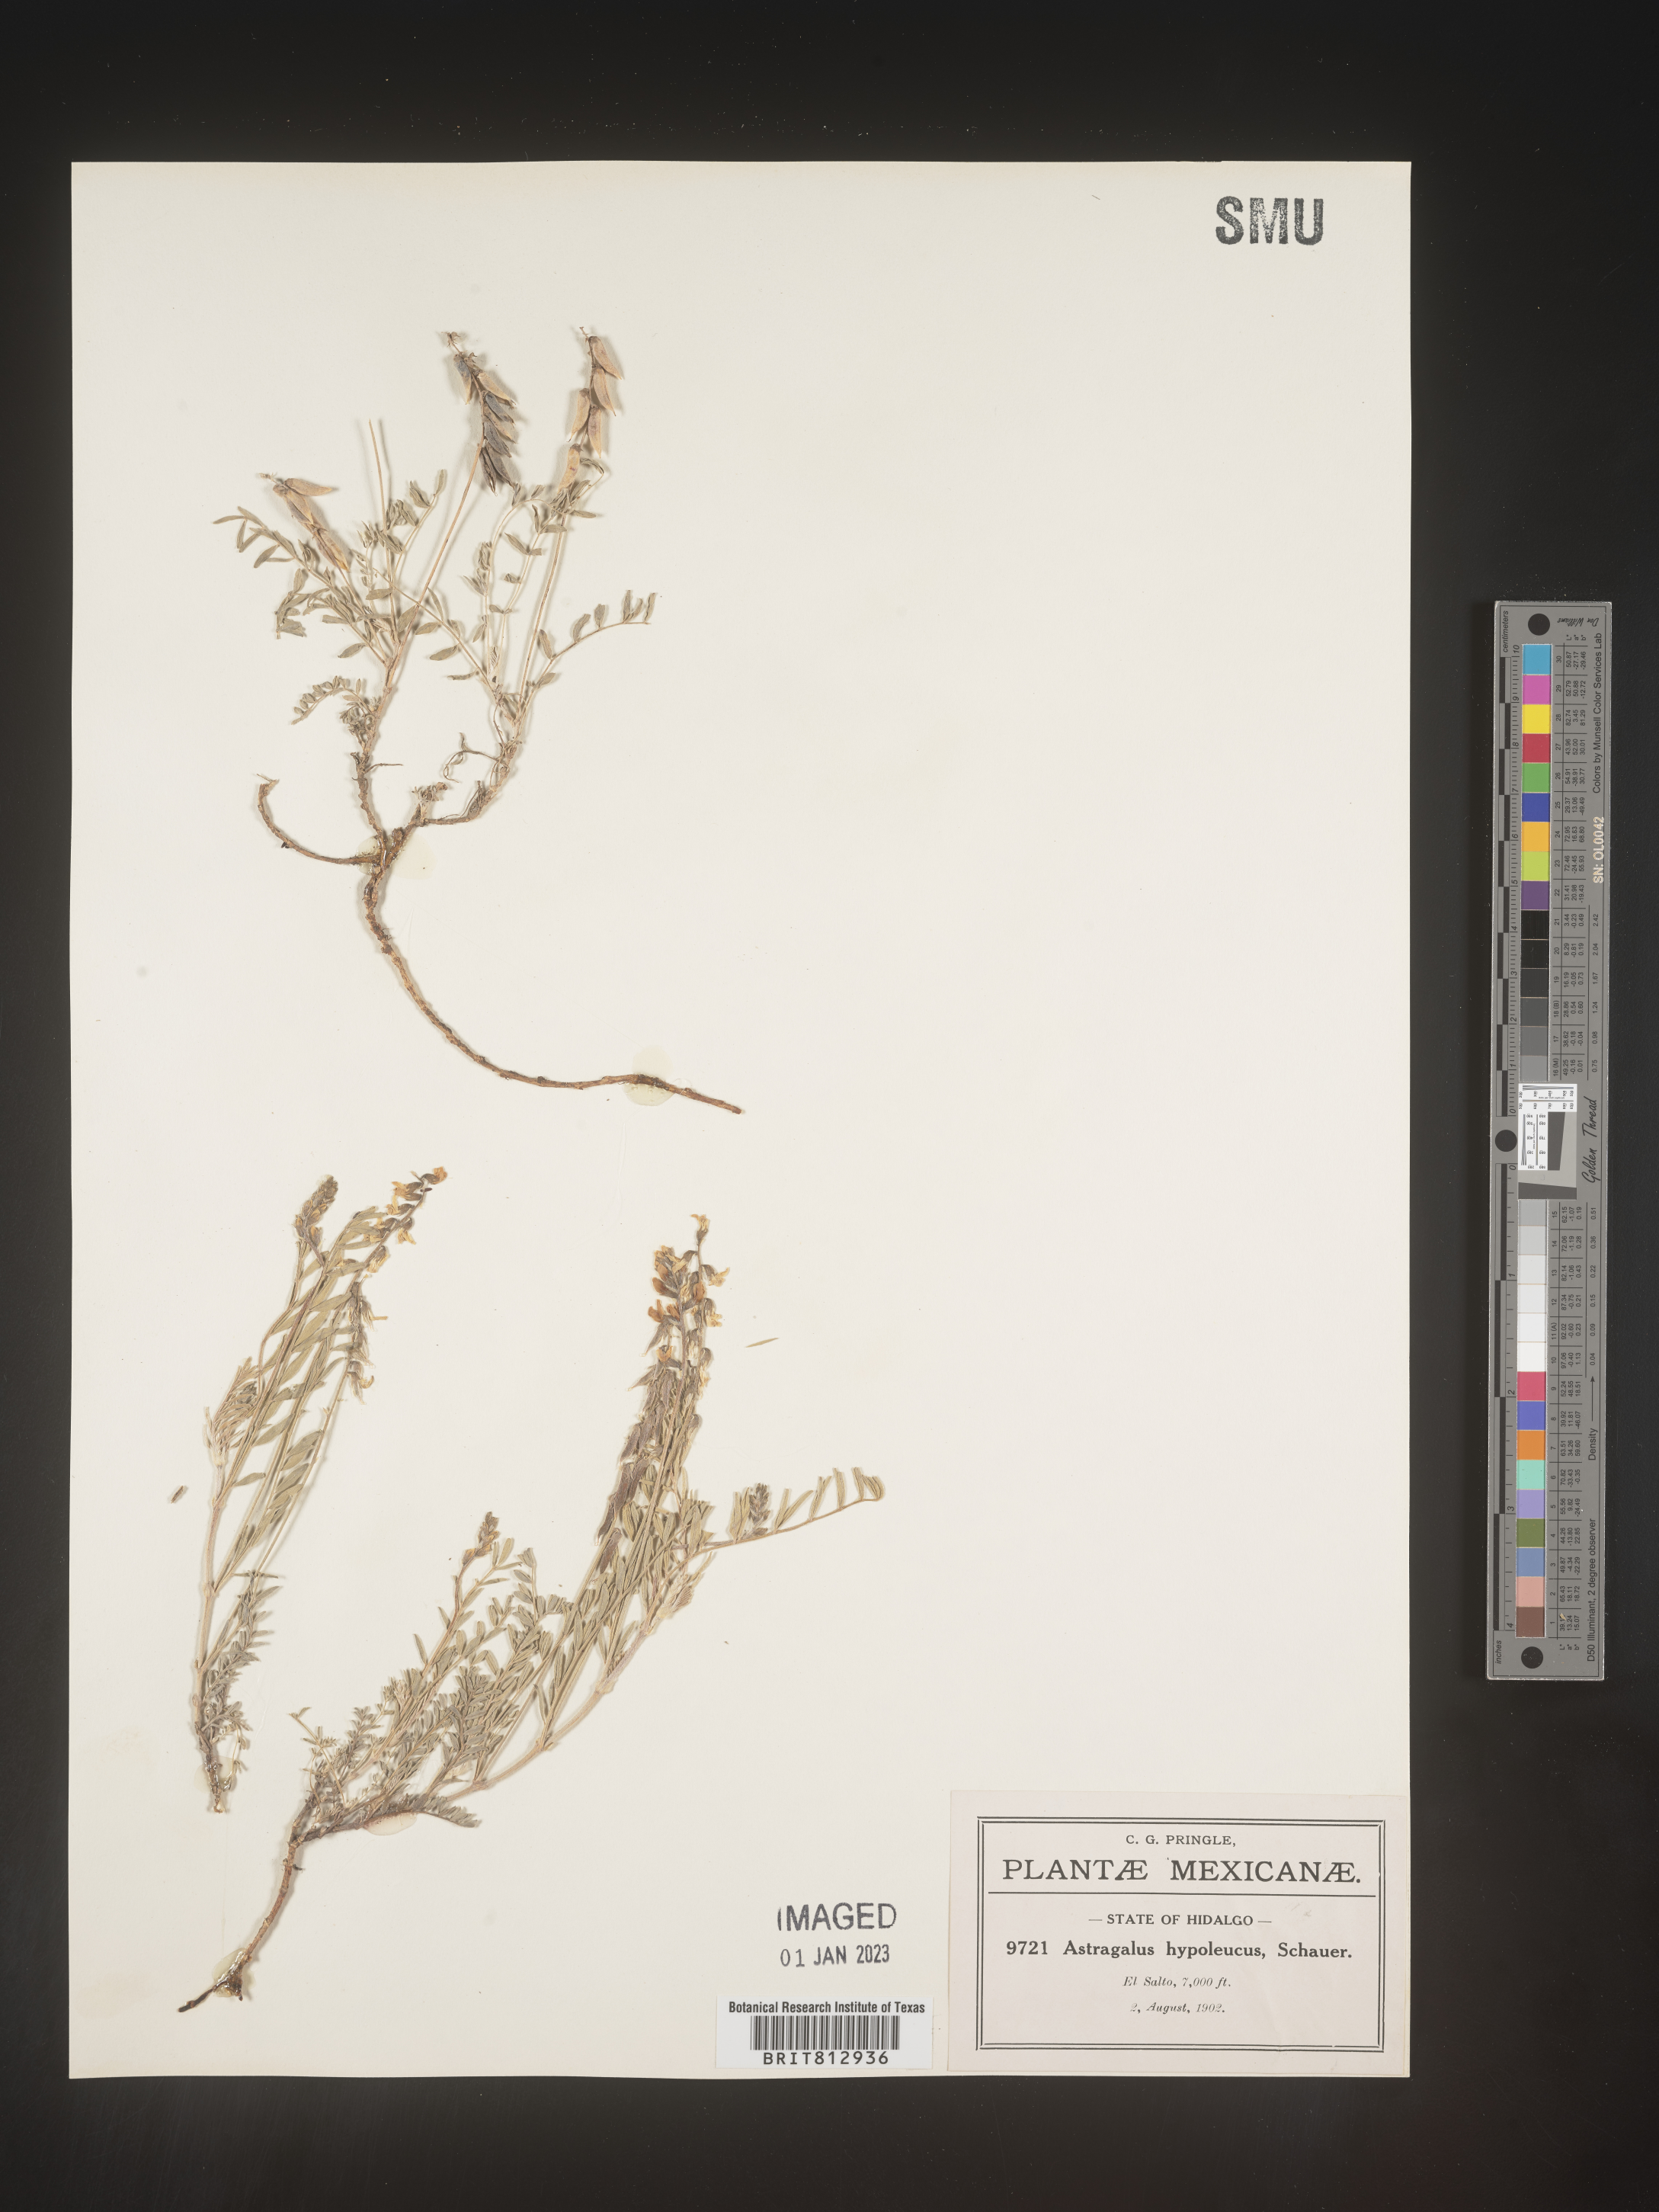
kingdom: Plantae
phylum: Tracheophyta
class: Magnoliopsida
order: Fabales
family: Fabaceae
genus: Astragalus
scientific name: Astragalus
